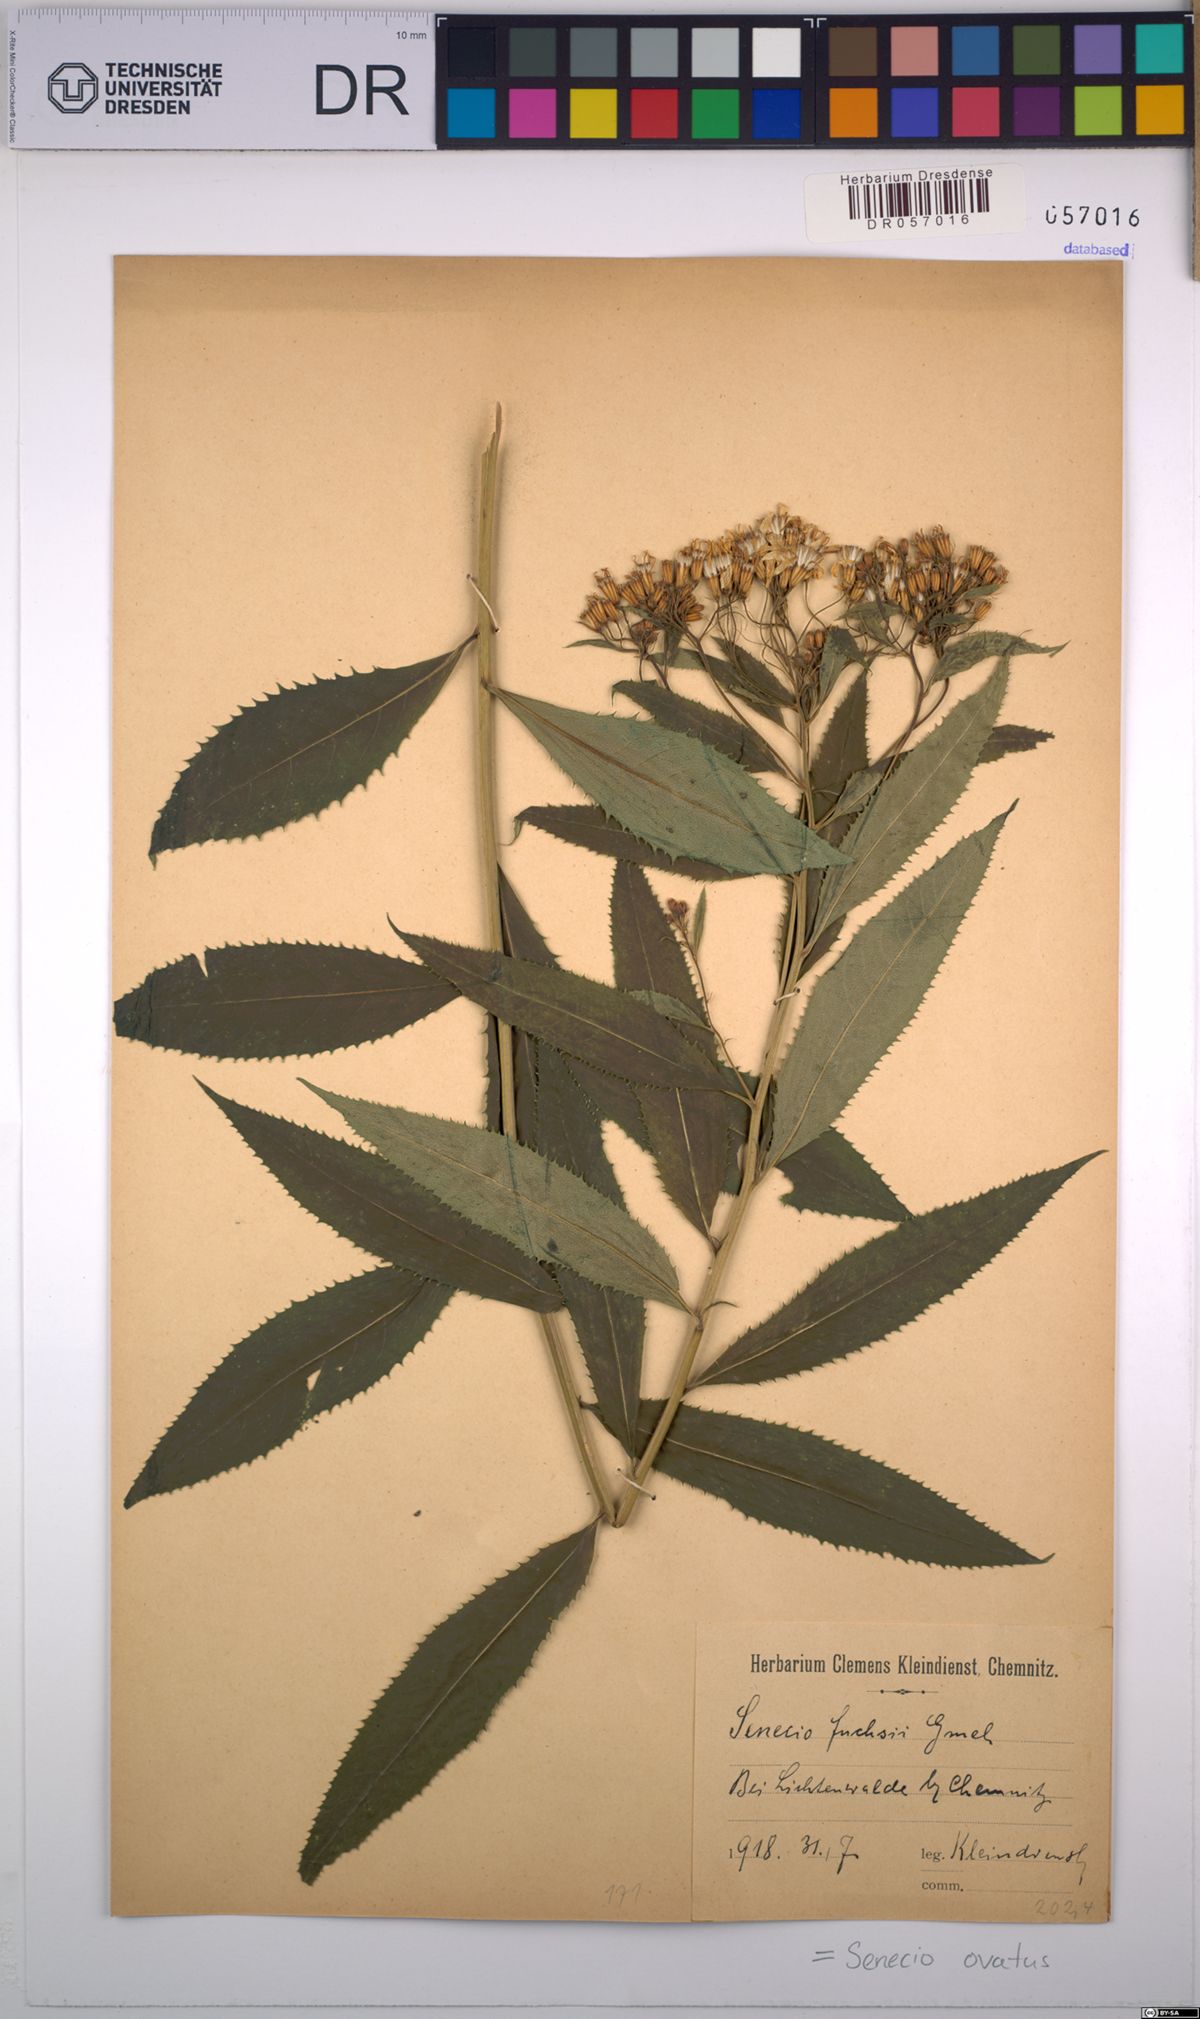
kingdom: Plantae
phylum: Tracheophyta
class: Magnoliopsida
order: Asterales
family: Asteraceae
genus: Senecio
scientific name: Senecio ovatus
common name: Wood ragwort
